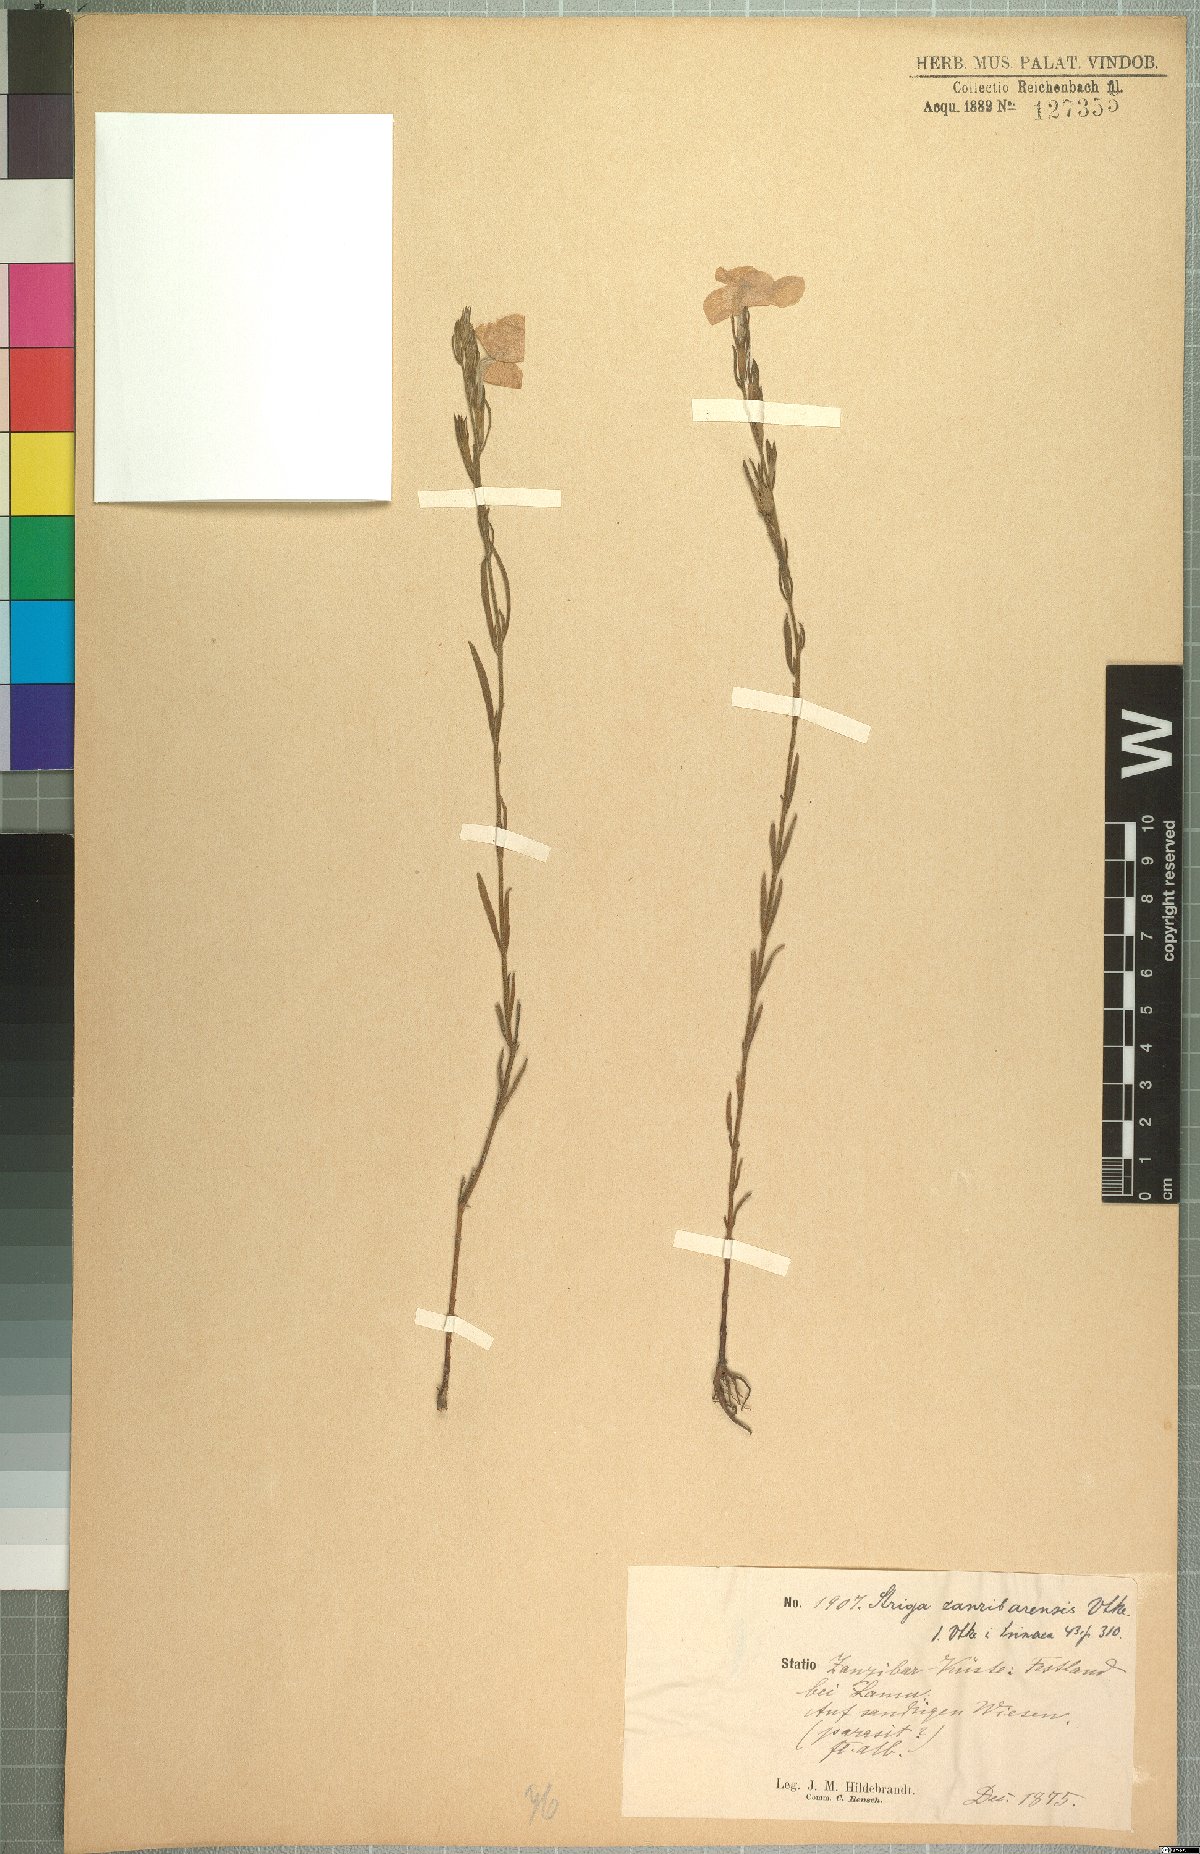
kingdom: Plantae
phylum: Tracheophyta
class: Magnoliopsida
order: Lamiales
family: Orobanchaceae
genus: Striga
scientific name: Striga pubiflora
